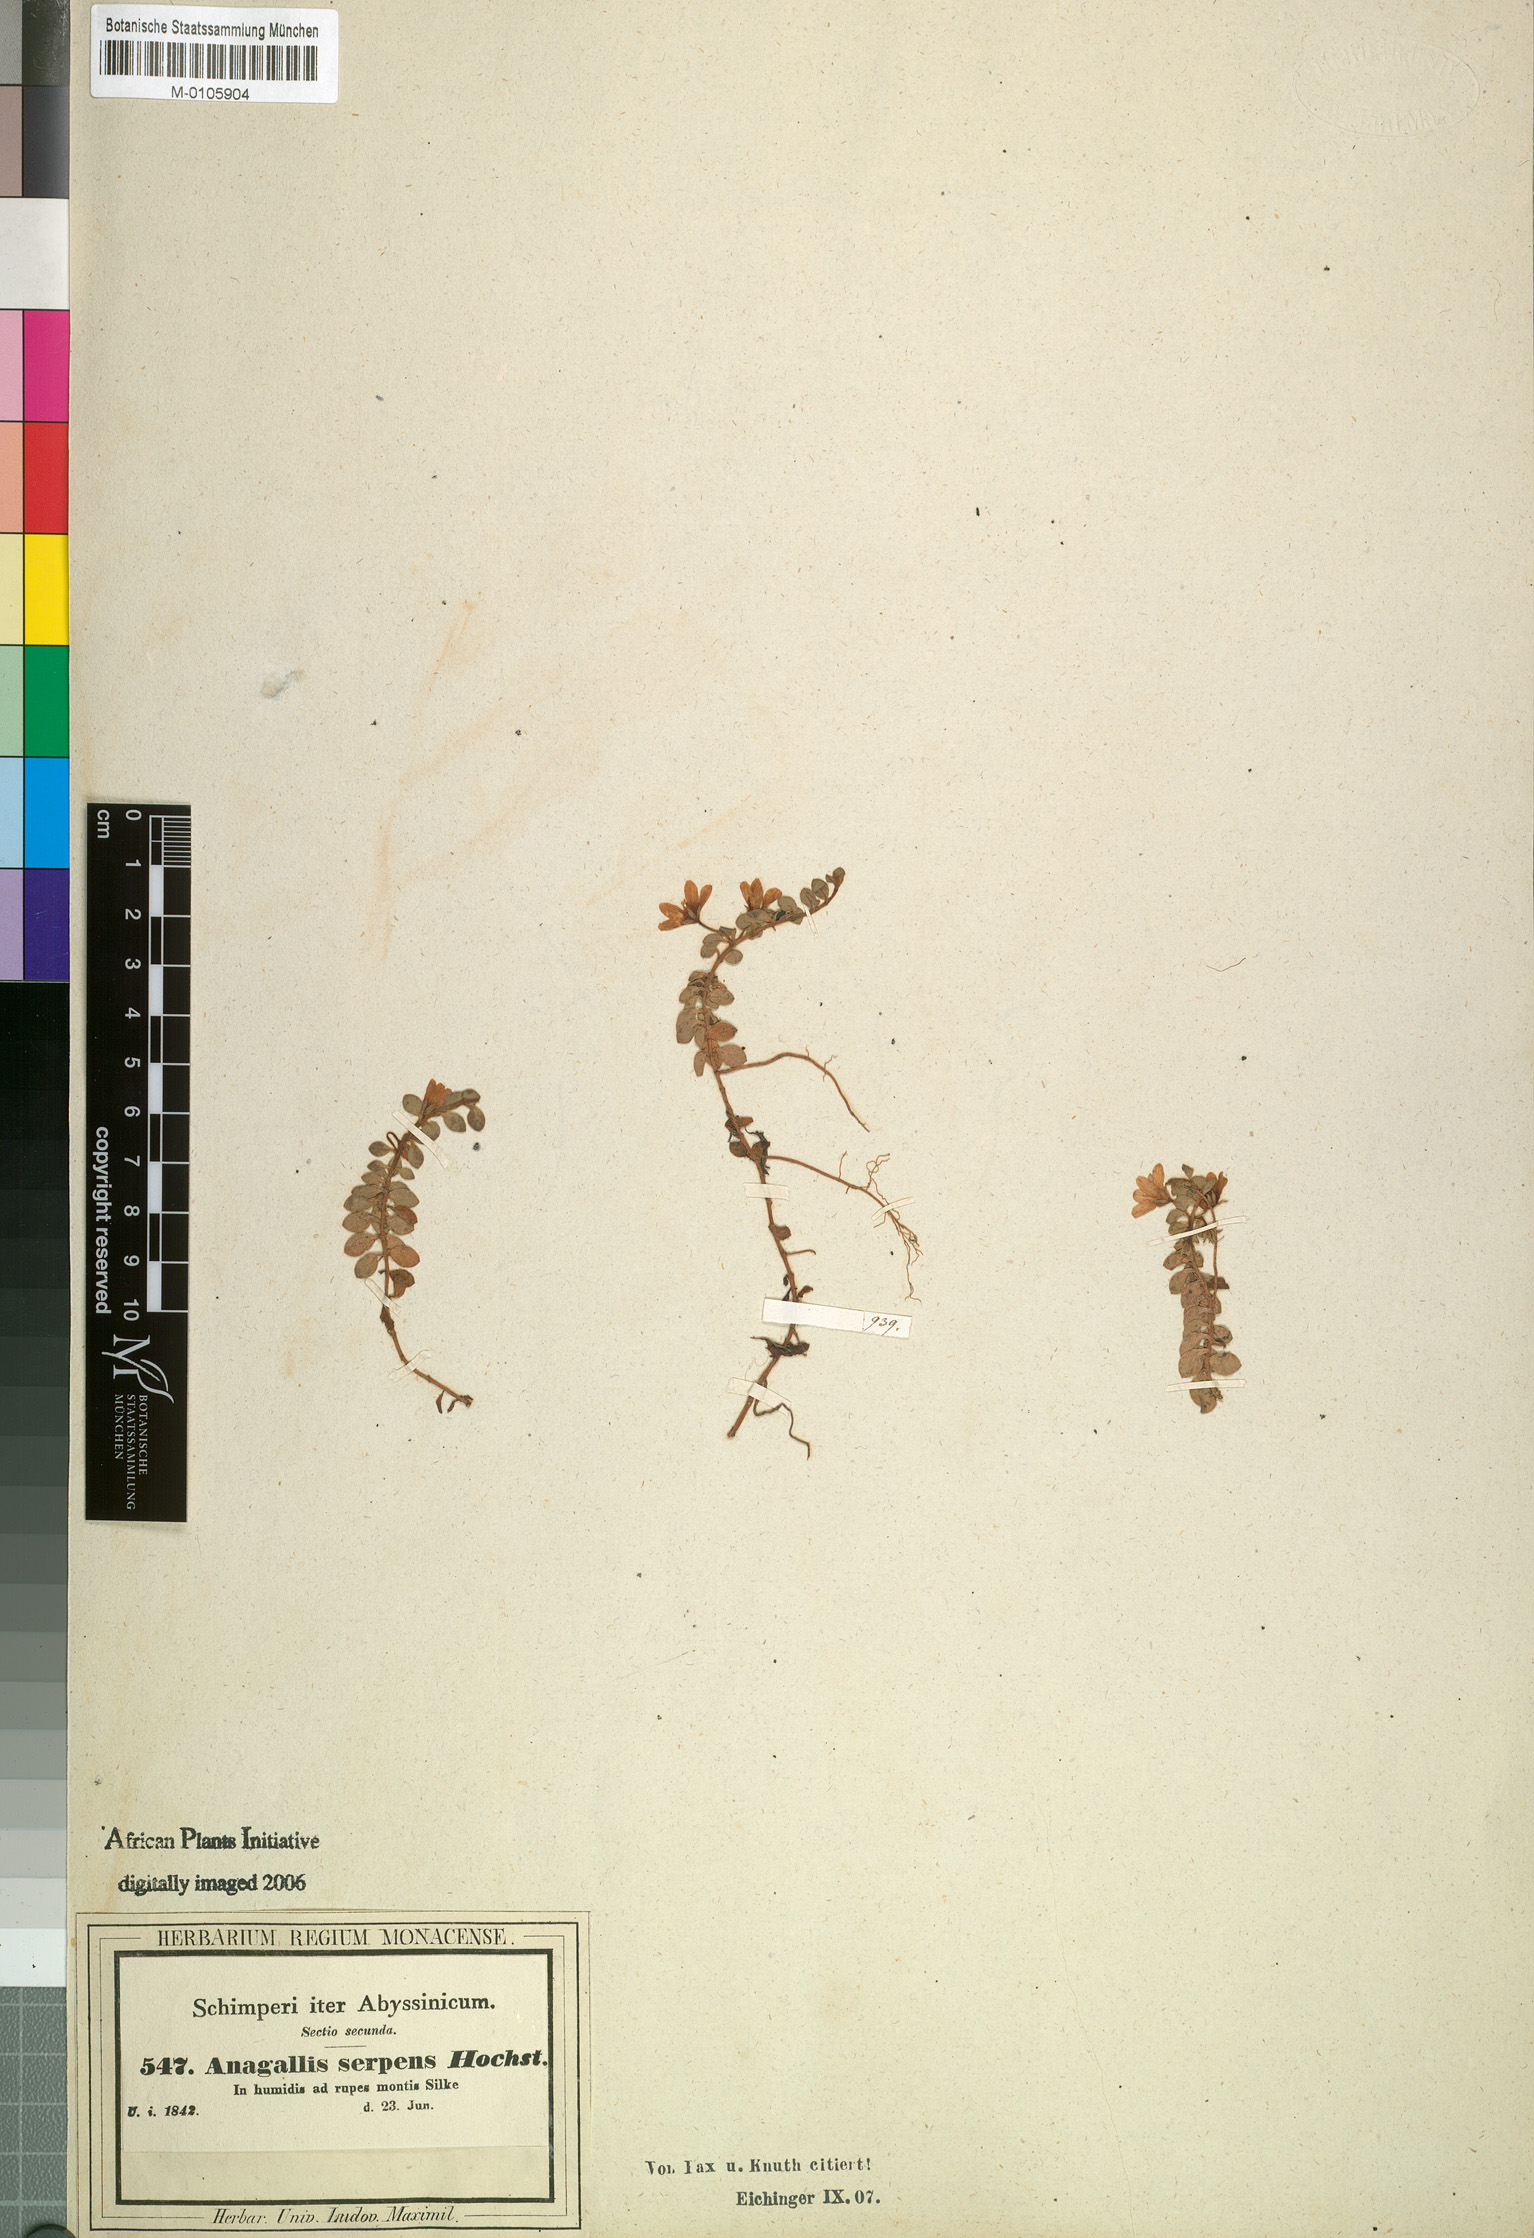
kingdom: Plantae
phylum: Tracheophyta
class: Magnoliopsida
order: Ericales
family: Primulaceae
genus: Lysimachia
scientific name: Lysimachia serpens
